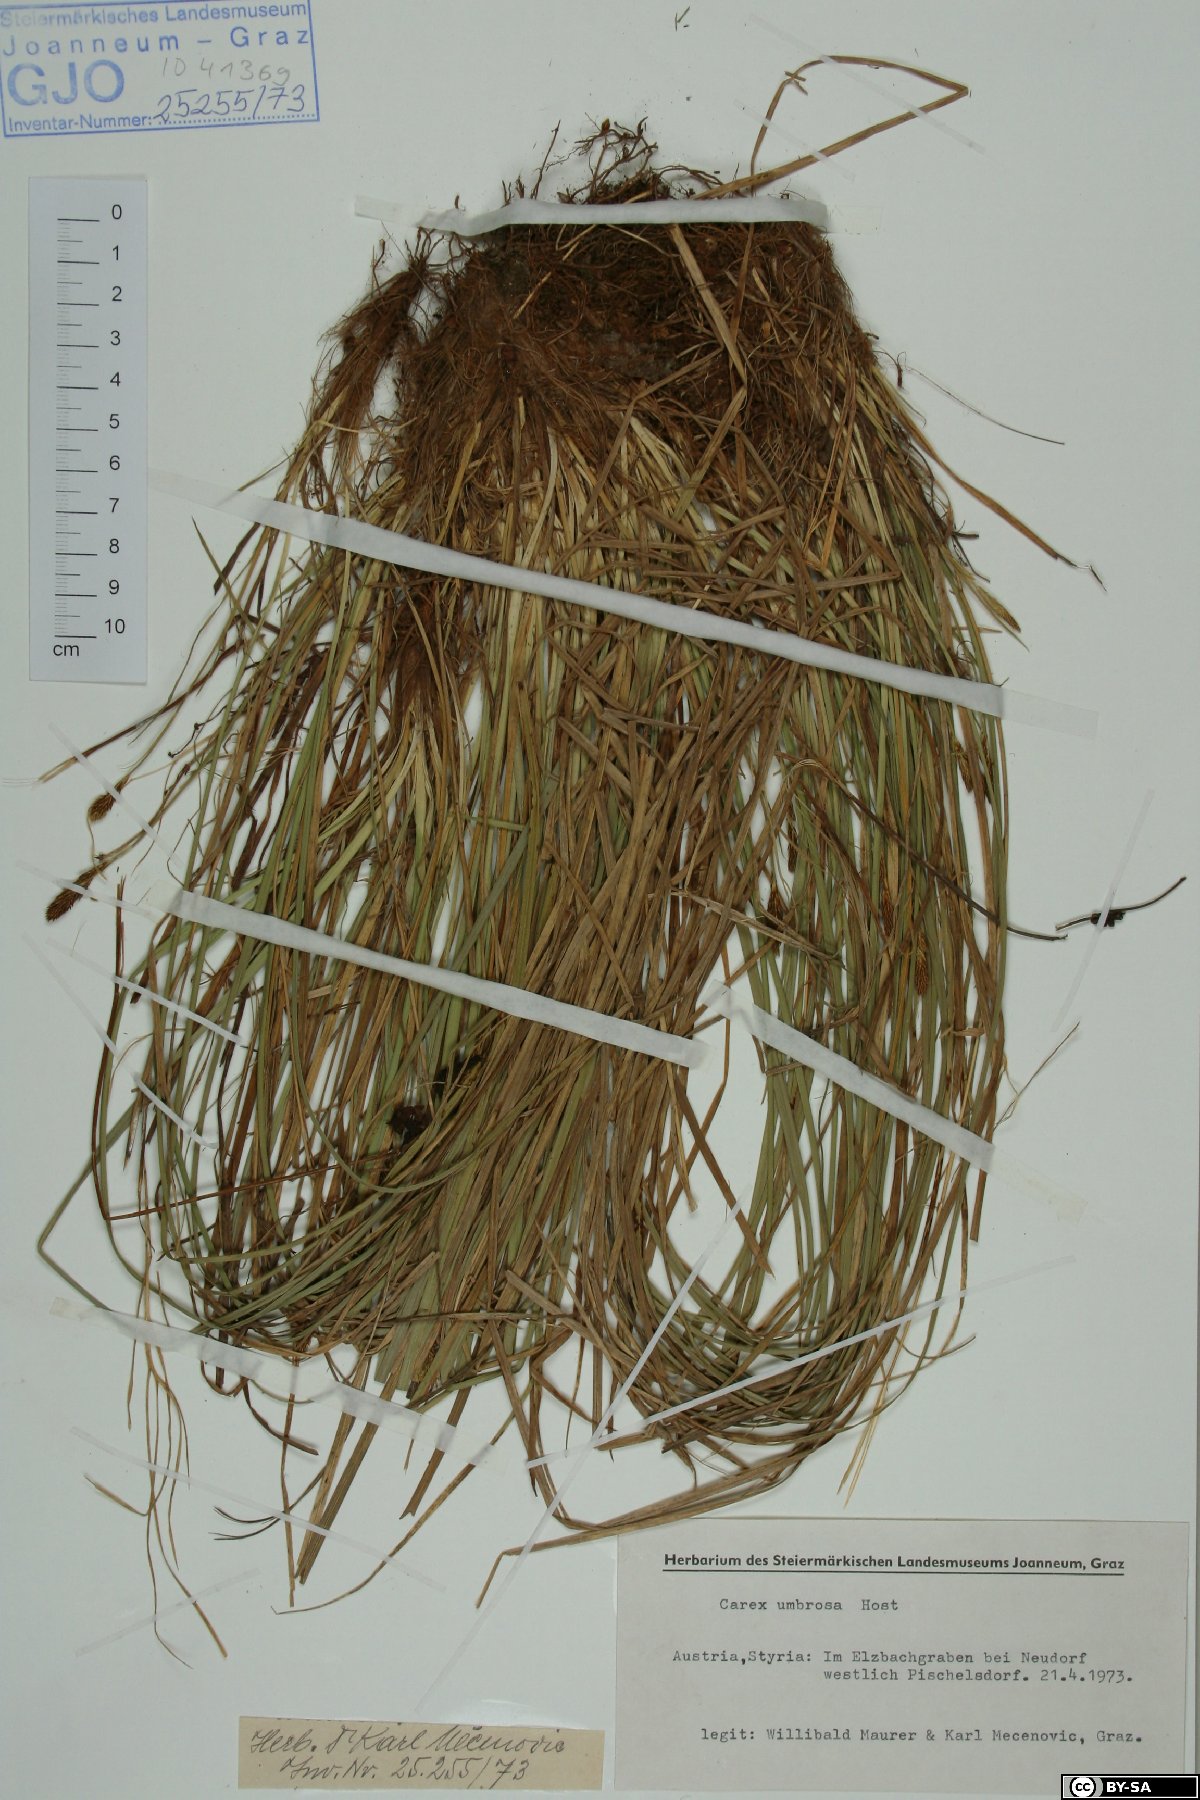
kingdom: Plantae
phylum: Tracheophyta
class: Liliopsida
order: Poales
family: Cyperaceae
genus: Carex
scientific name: Carex umbrosa
